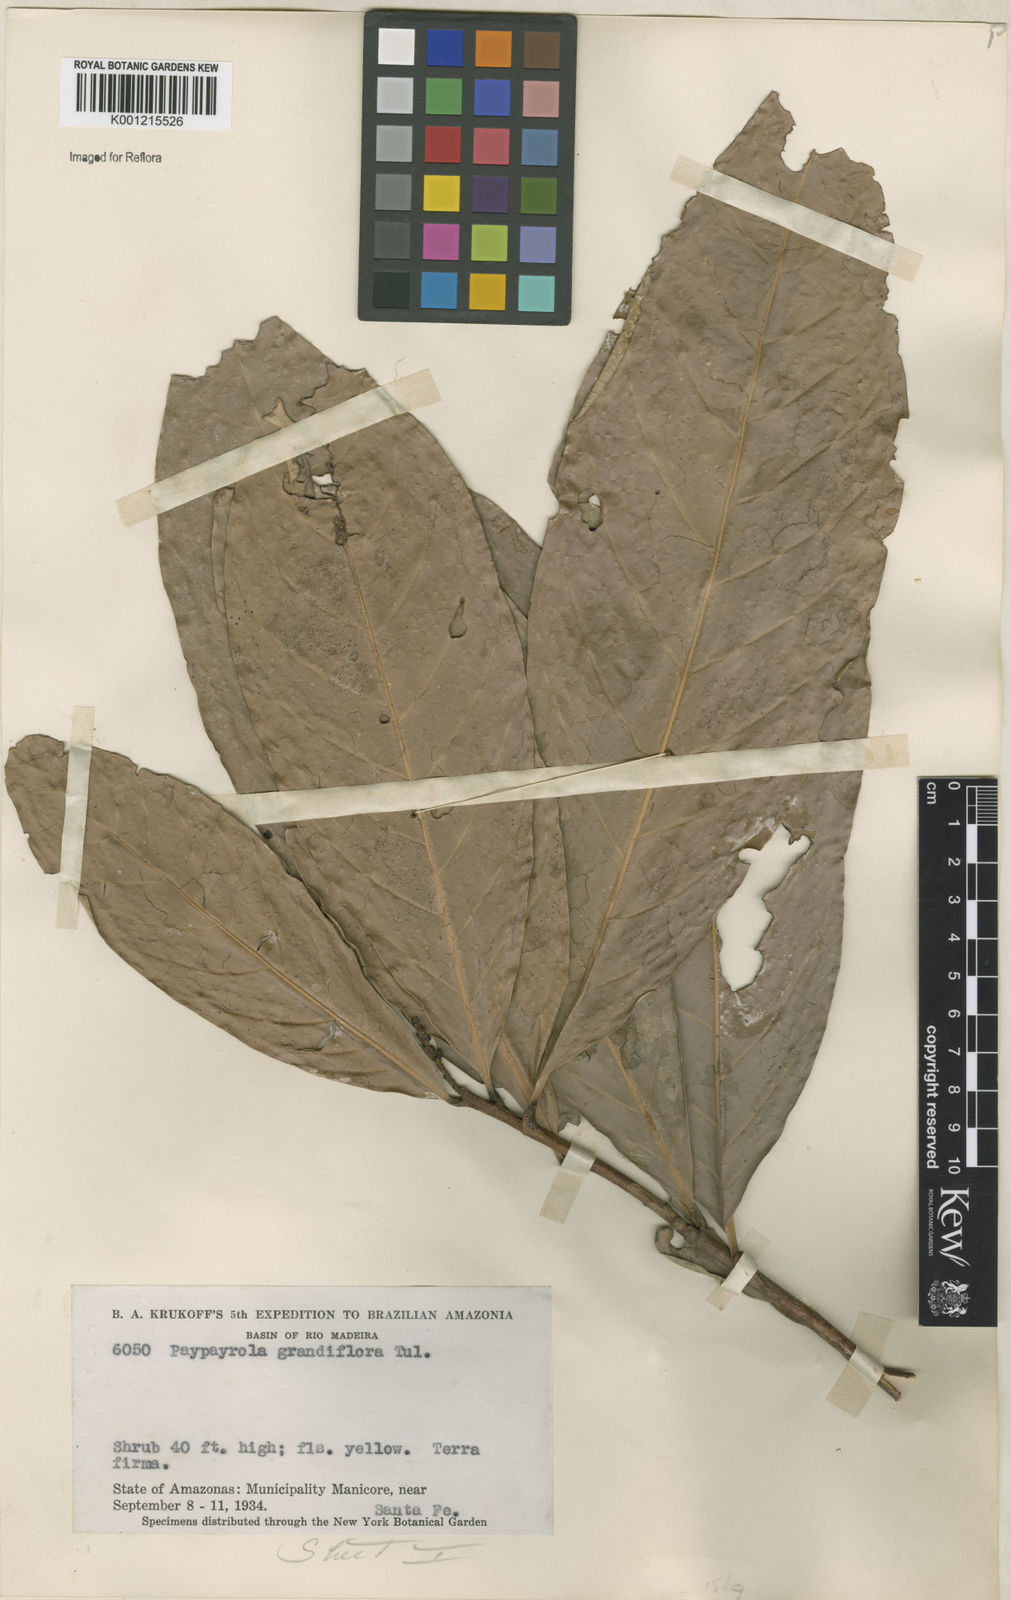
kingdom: Plantae
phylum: Tracheophyta
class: Magnoliopsida
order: Malpighiales
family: Violaceae
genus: Paypayrola
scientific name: Paypayrola grandiflora
